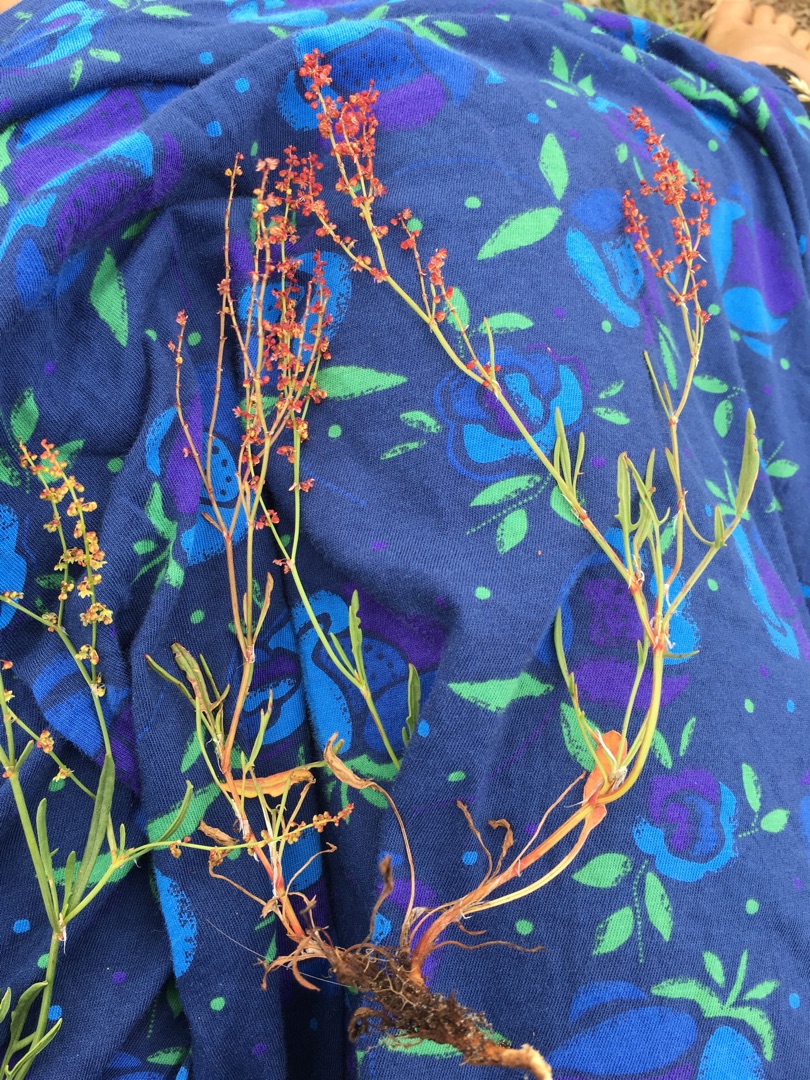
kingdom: Plantae
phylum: Tracheophyta
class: Magnoliopsida
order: Caryophyllales
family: Polygonaceae
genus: Rumex
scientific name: Rumex acetosella
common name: Rødknæ
